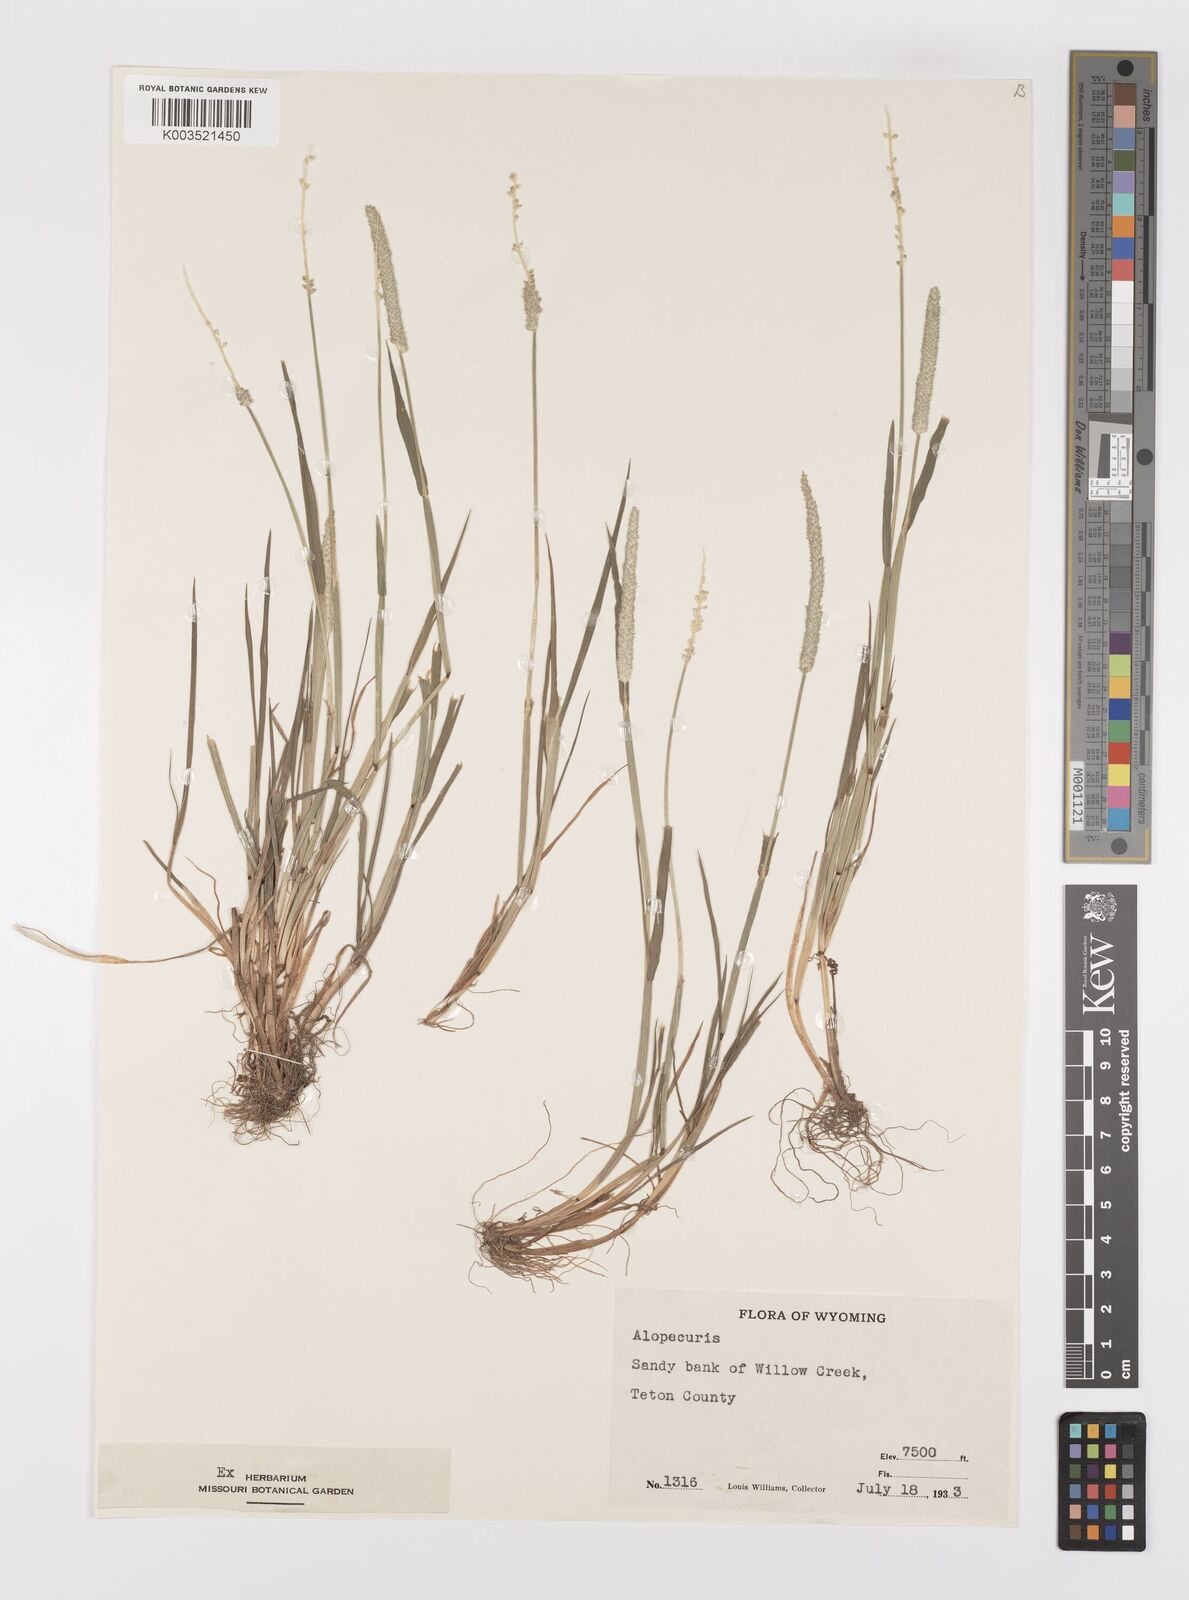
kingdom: Plantae
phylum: Tracheophyta
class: Liliopsida
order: Poales
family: Poaceae
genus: Alopecurus
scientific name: Alopecurus
